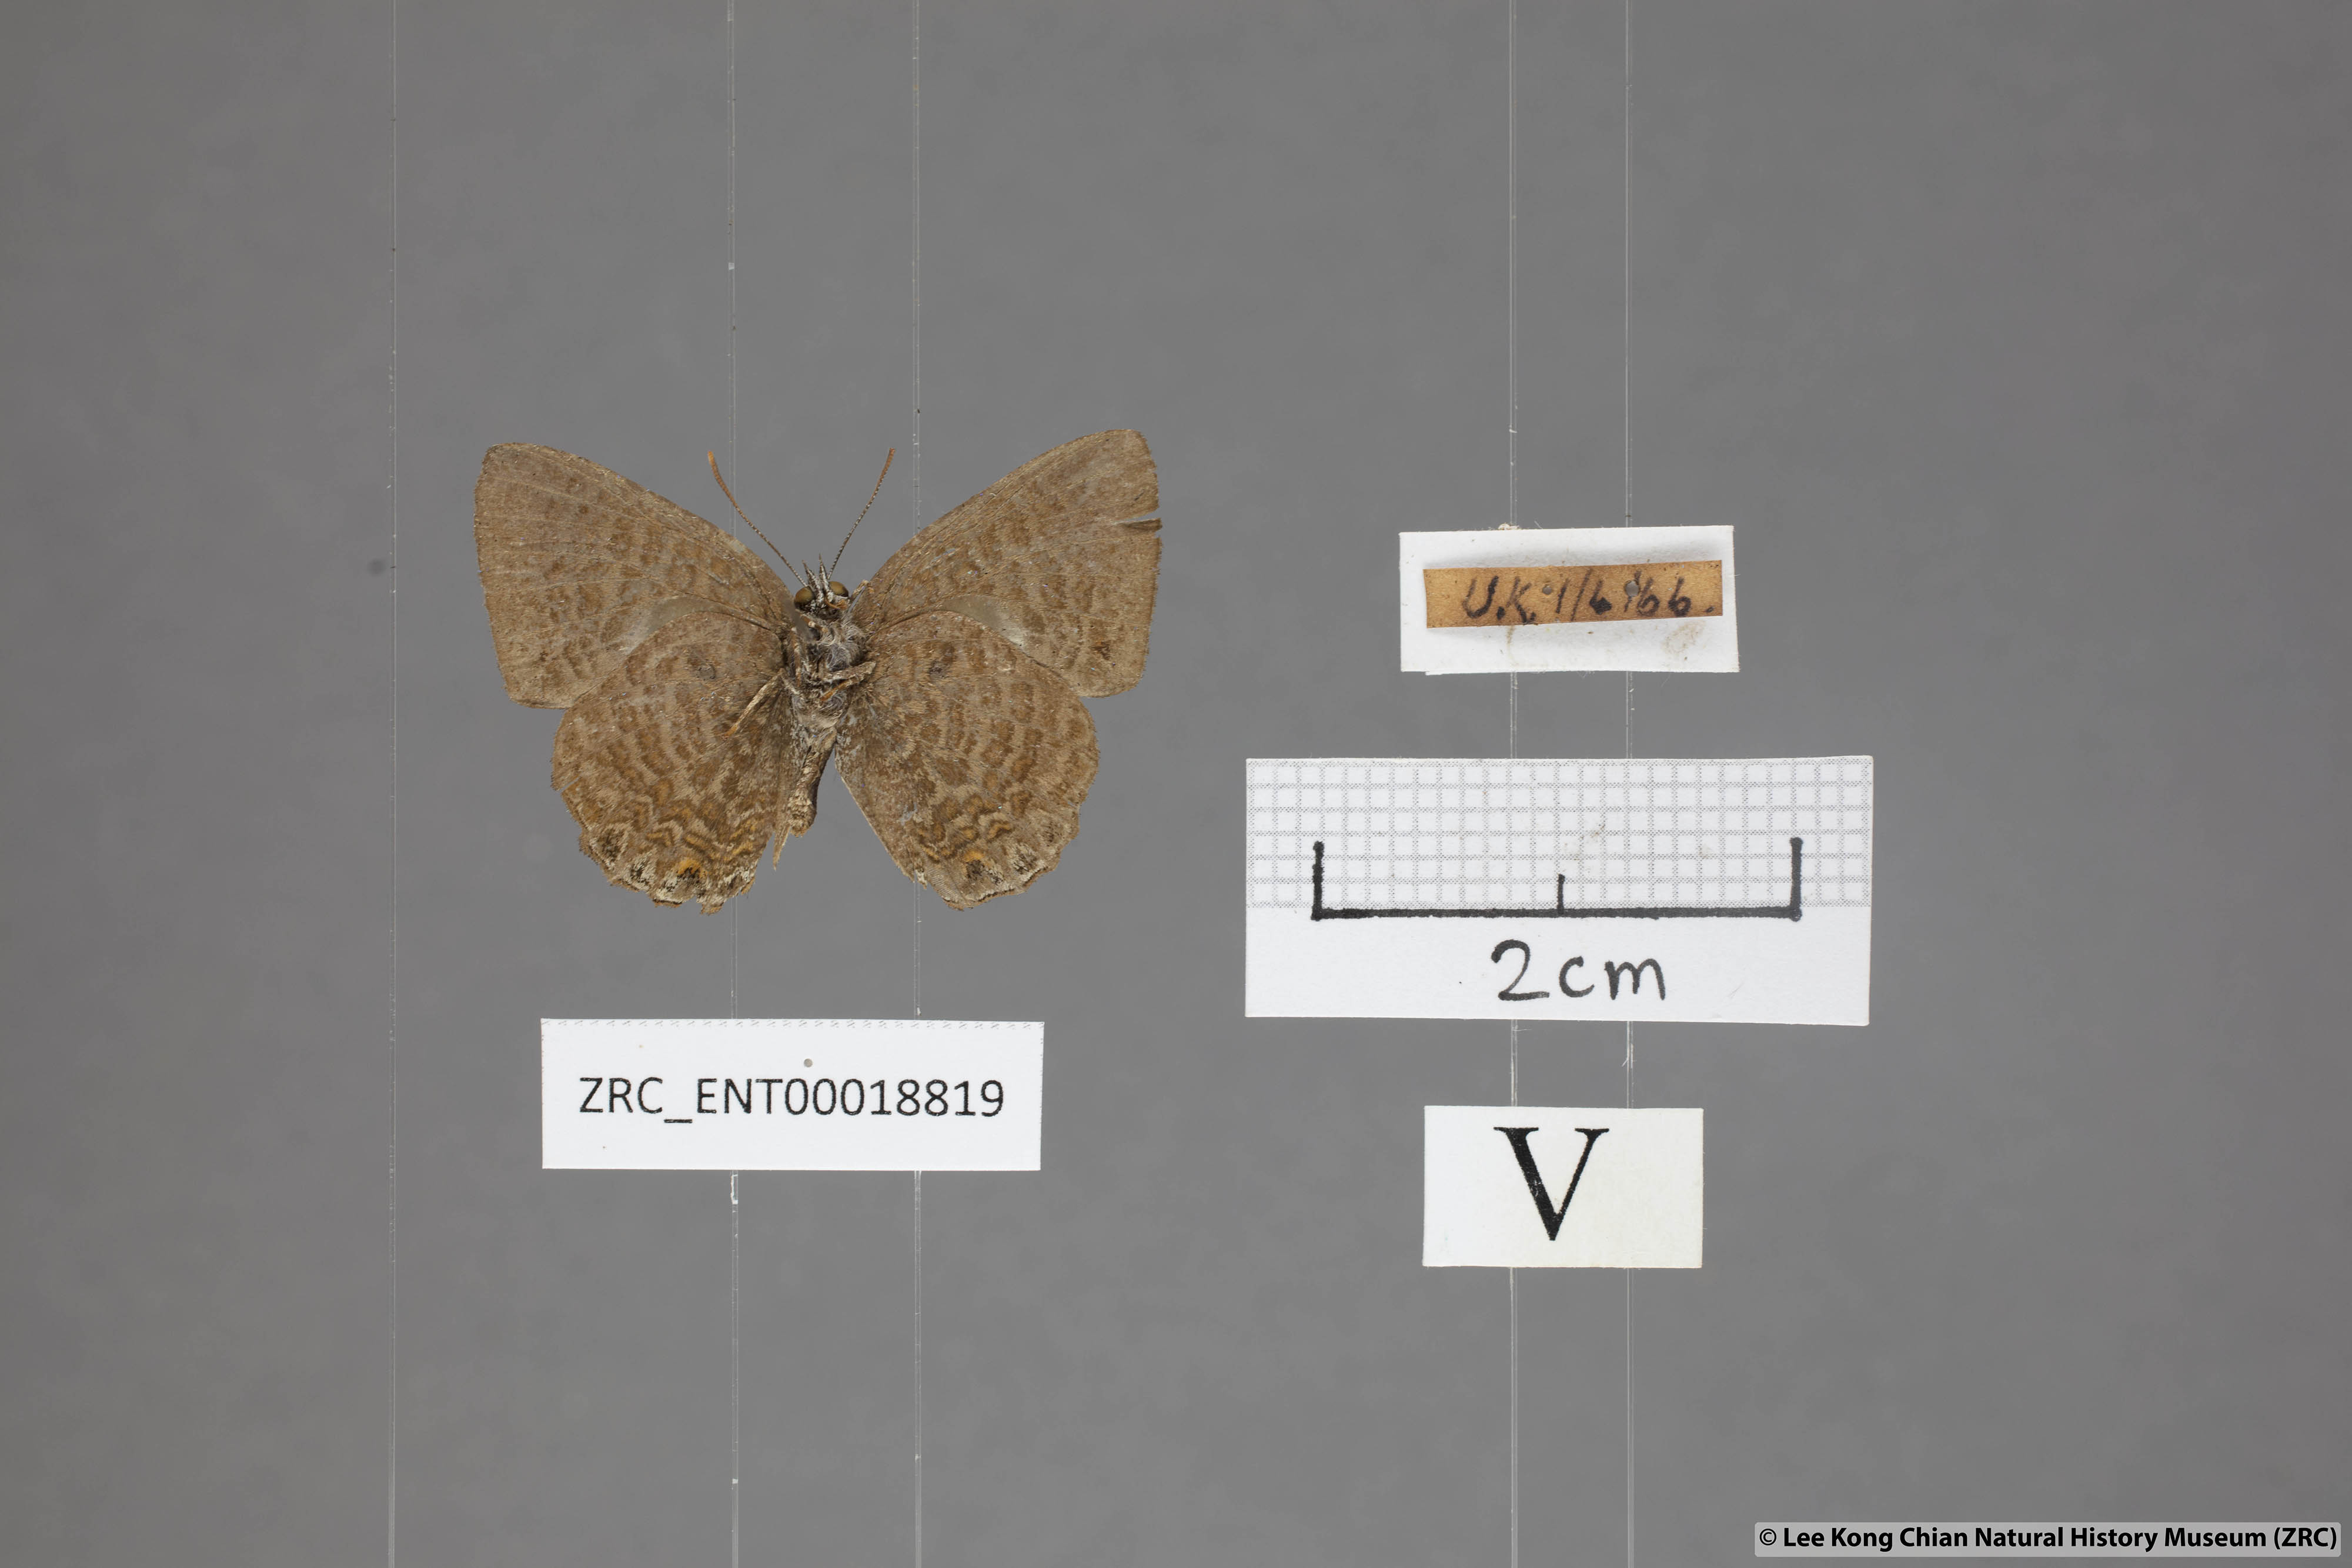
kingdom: Animalia
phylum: Arthropoda
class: Insecta
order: Lepidoptera
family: Lycaenidae
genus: Poritia
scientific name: Poritia philota
